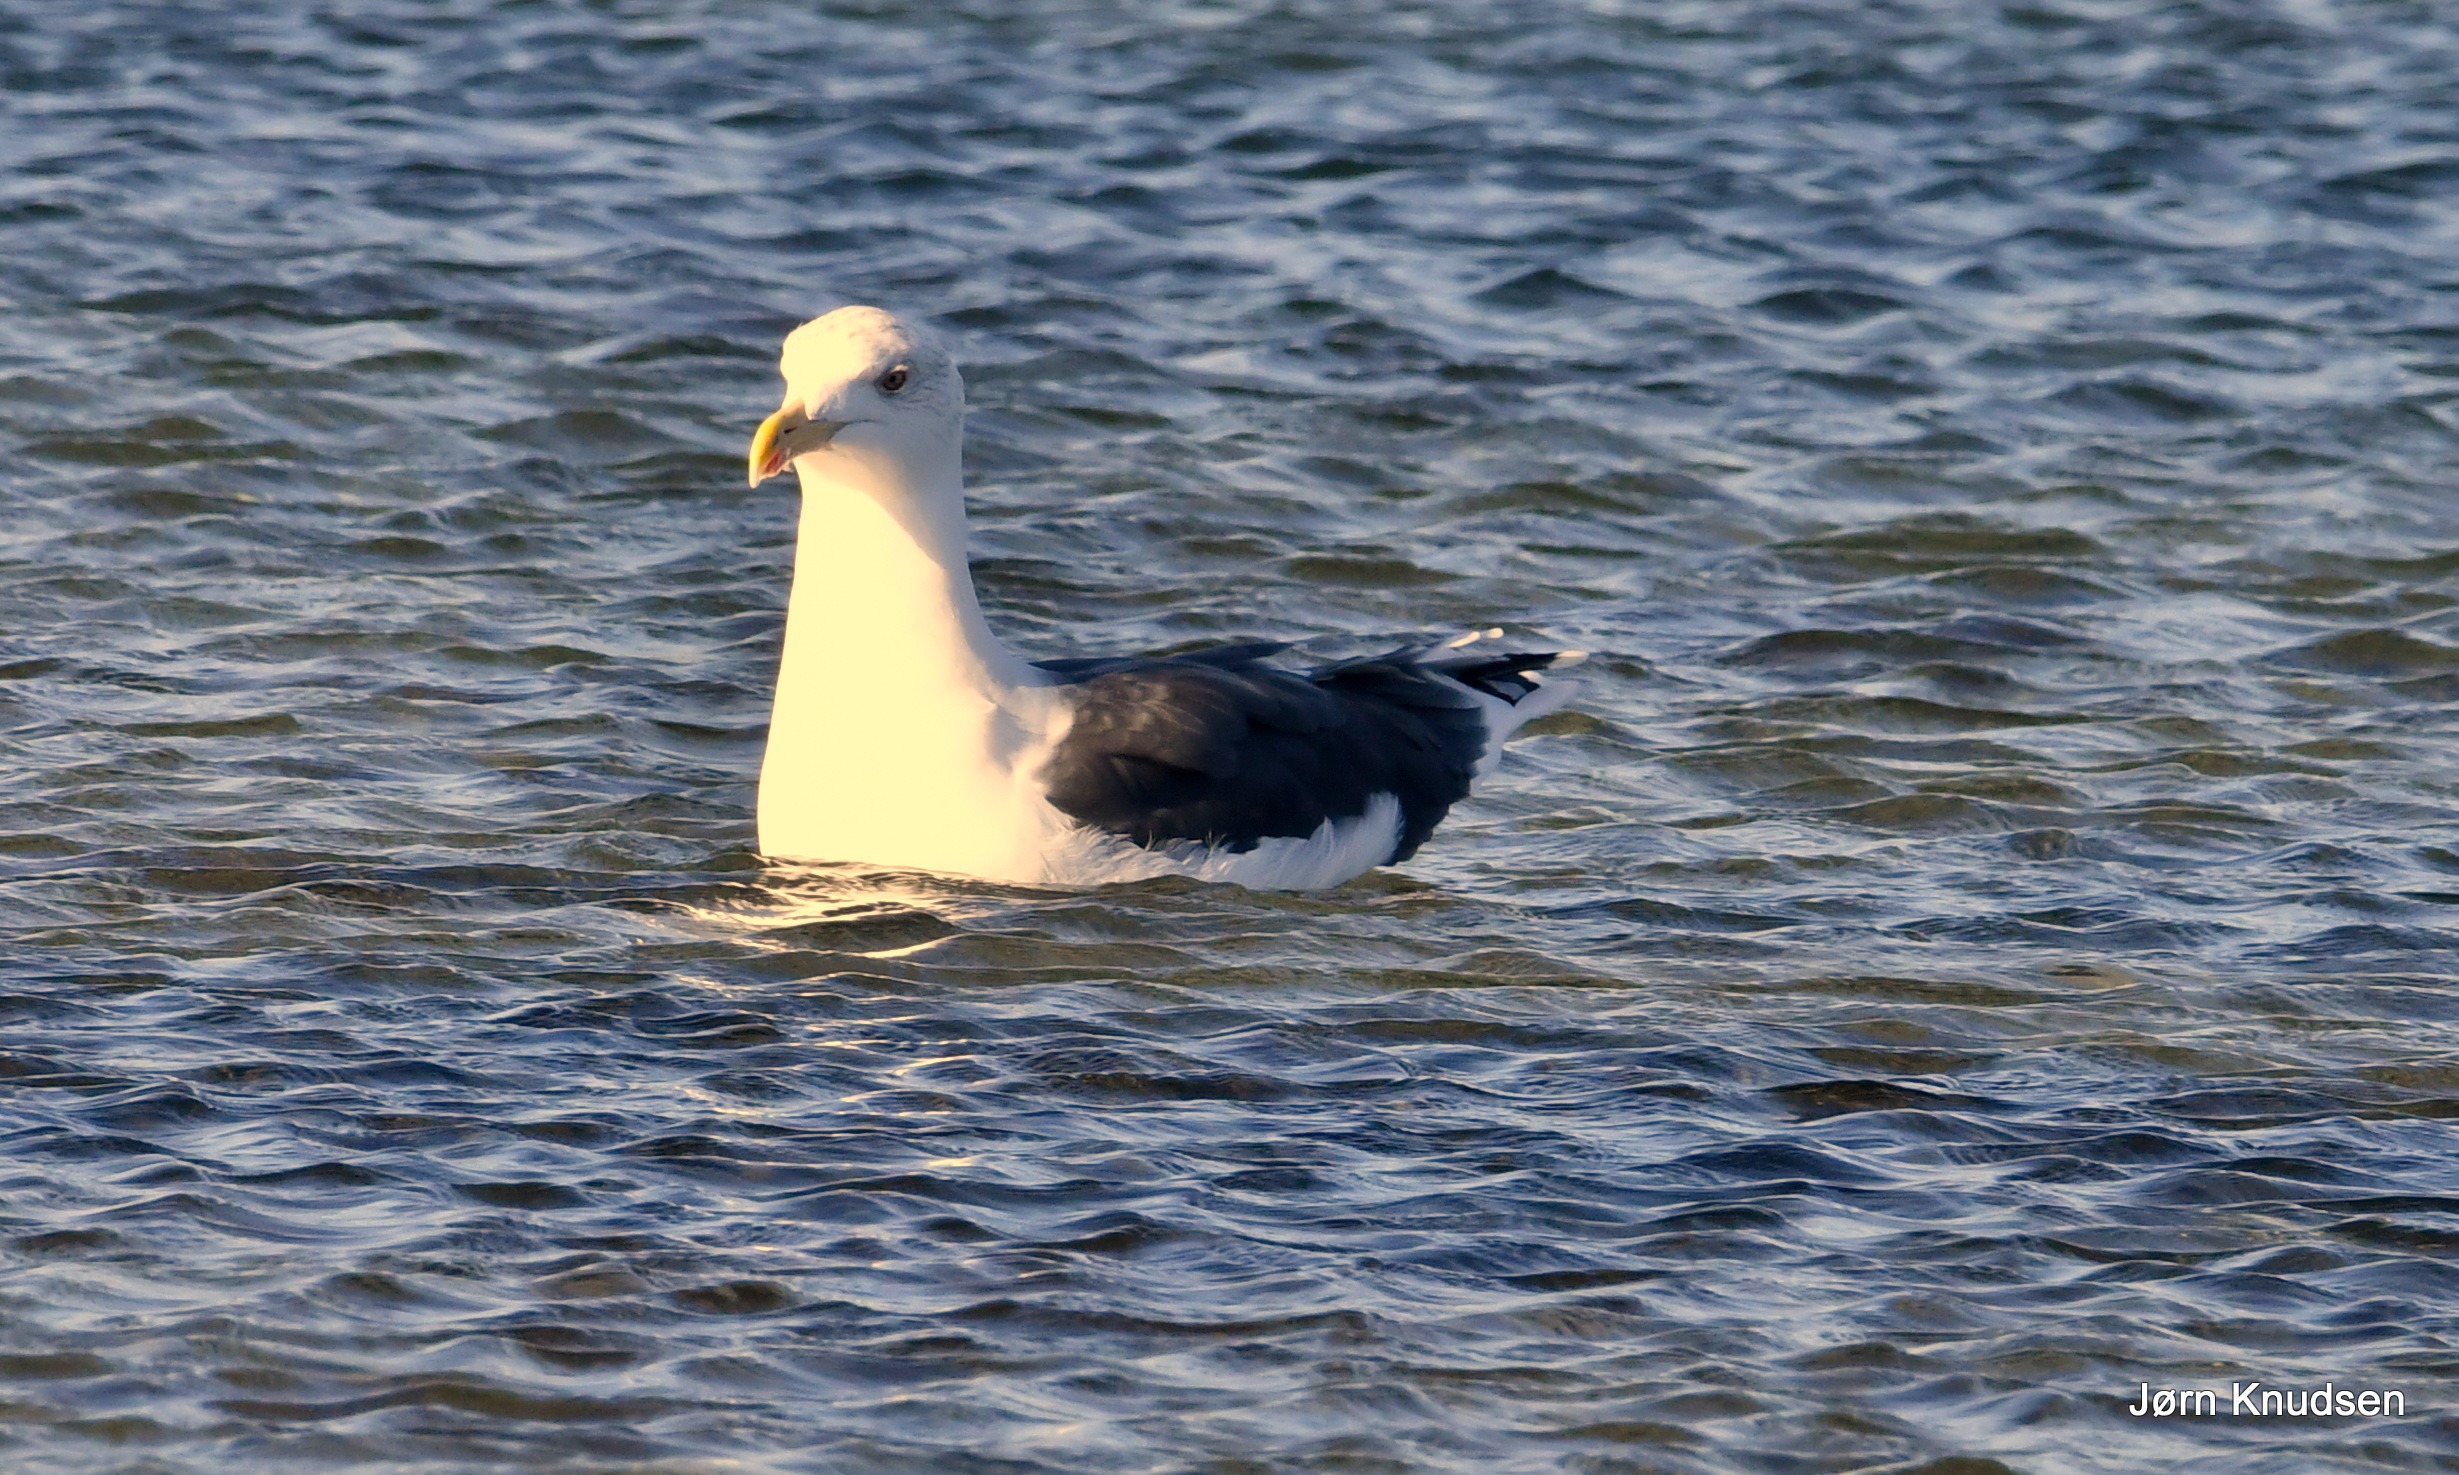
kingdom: Animalia
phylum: Chordata
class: Aves
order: Charadriiformes
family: Laridae
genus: Larus
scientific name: Larus marinus
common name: Svartbag
